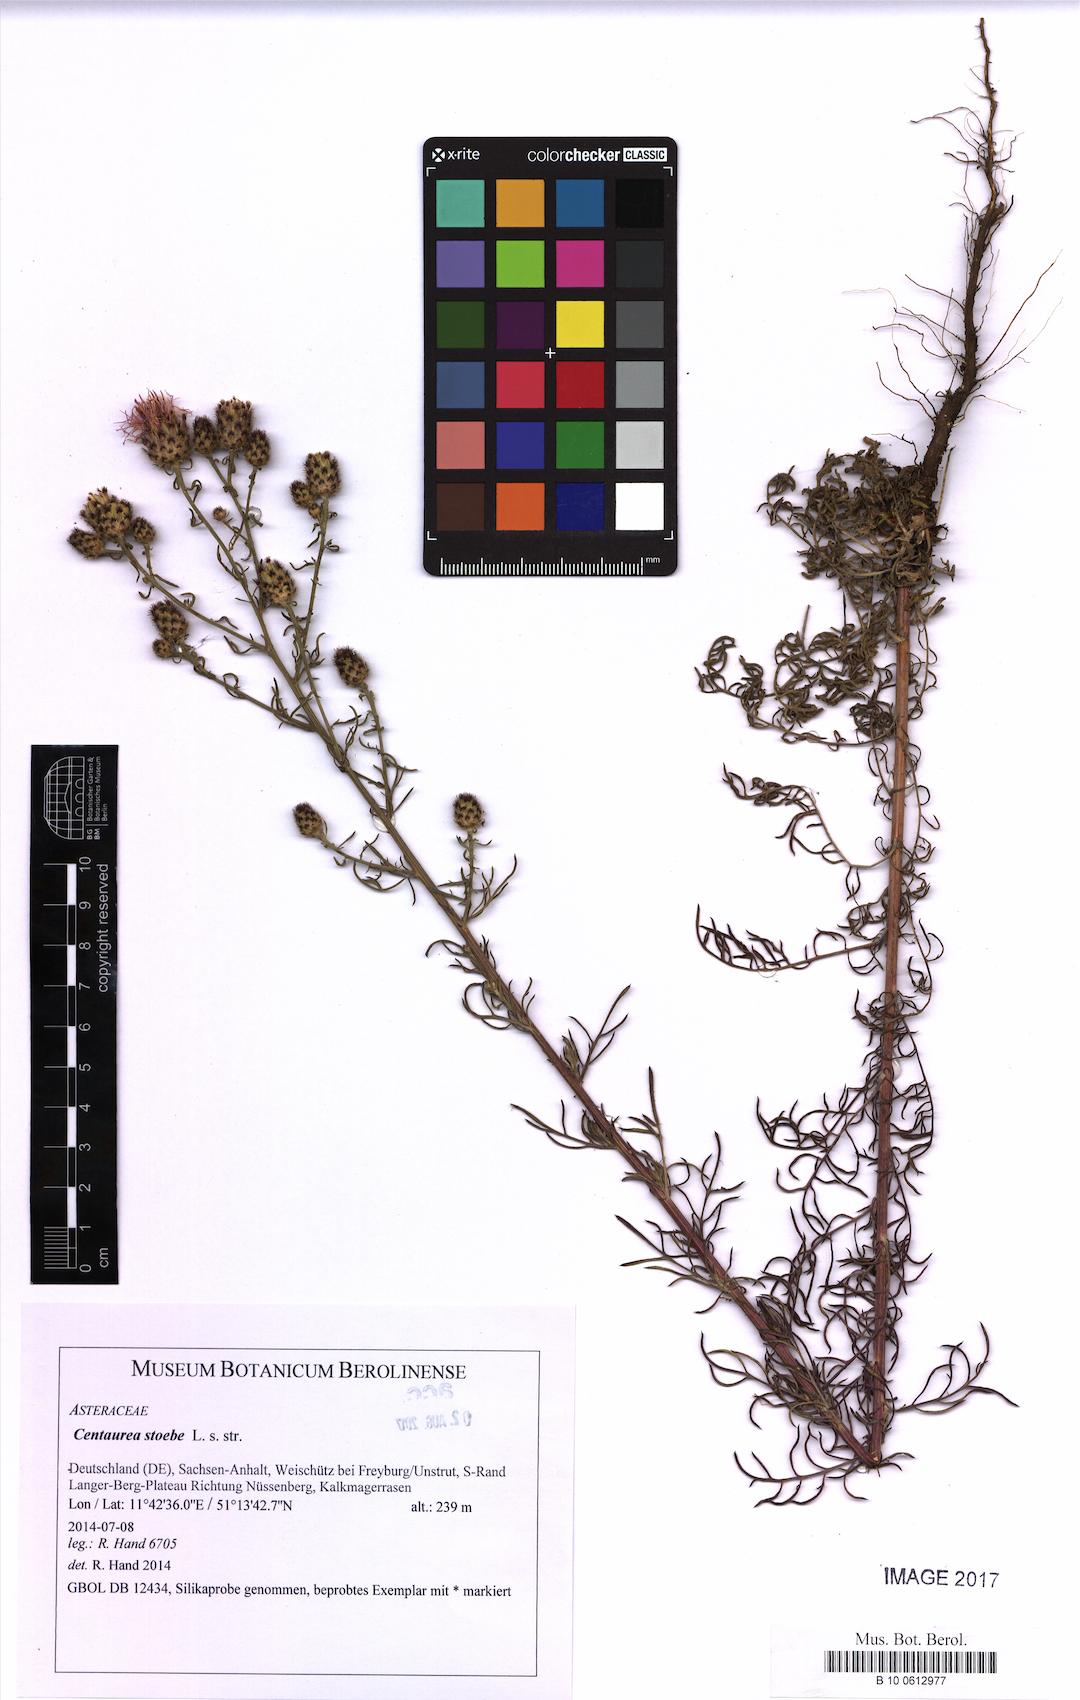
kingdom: Plantae
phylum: Tracheophyta
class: Magnoliopsida
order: Asterales
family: Asteraceae
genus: Centaurea
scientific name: Centaurea stoebe
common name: Spotted knapweed
